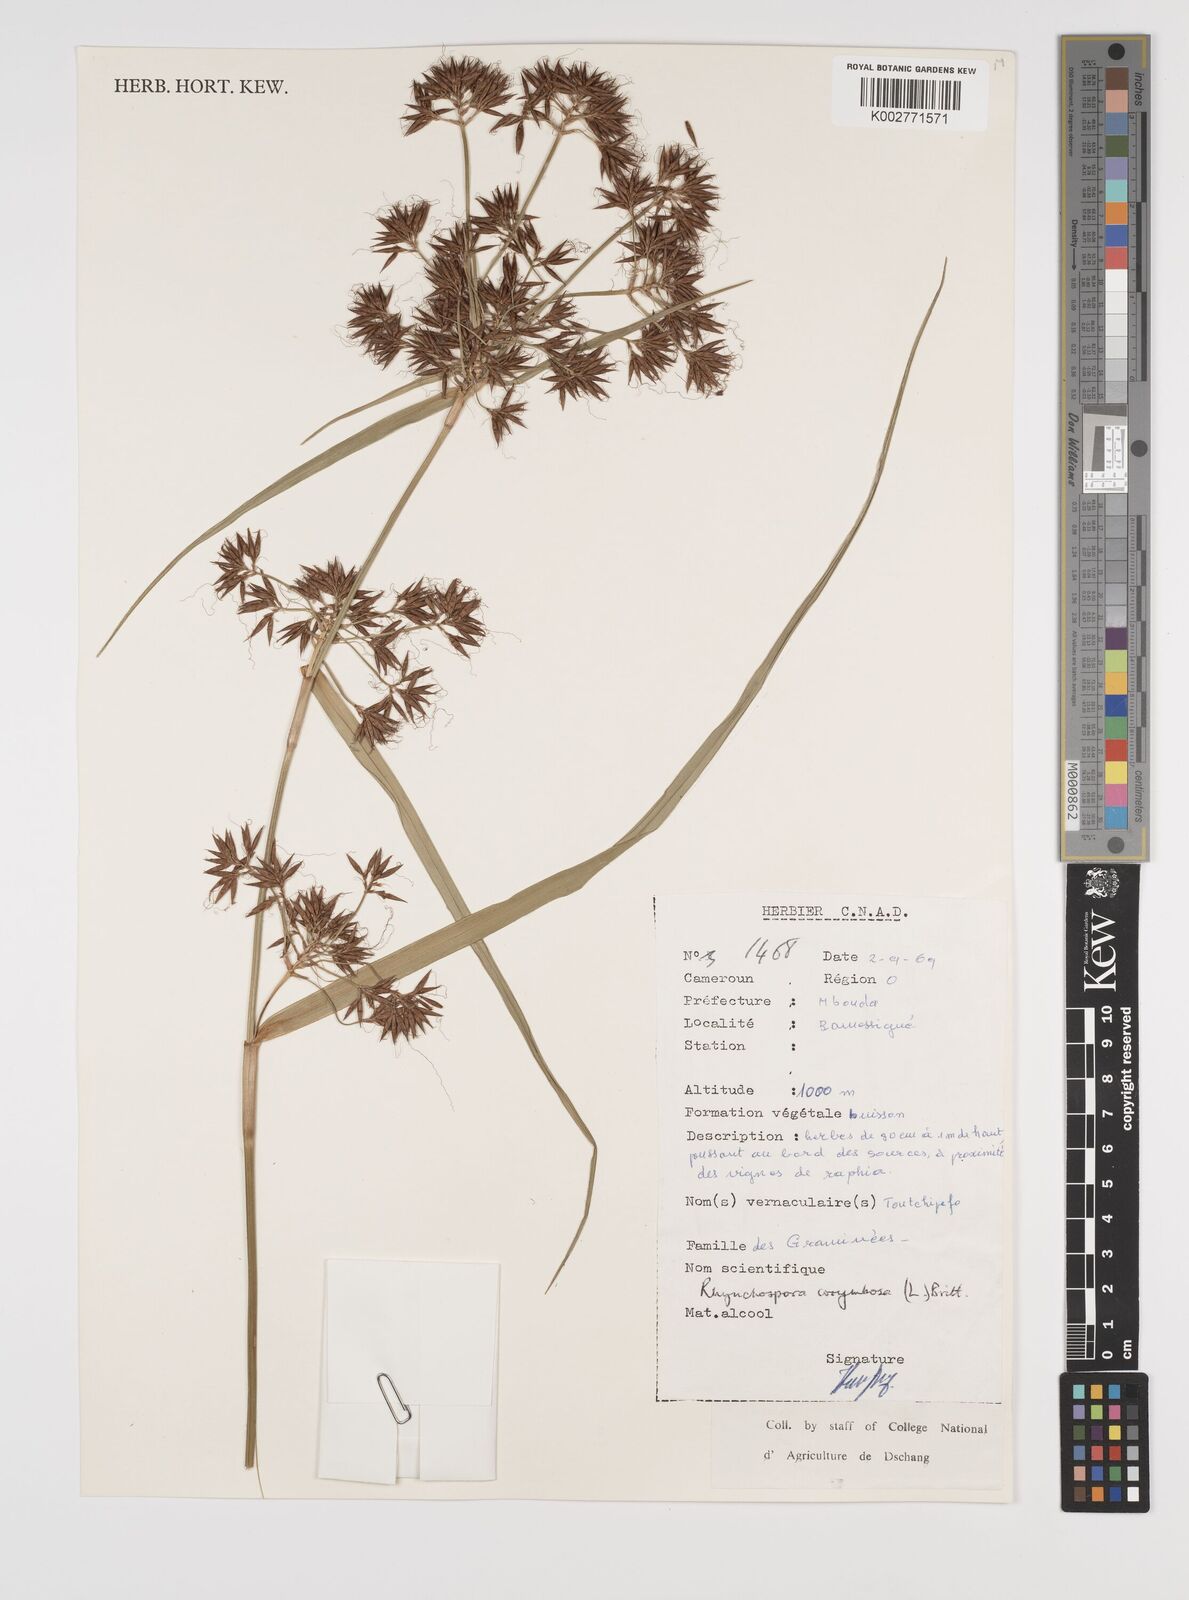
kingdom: Plantae
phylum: Tracheophyta
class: Liliopsida
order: Poales
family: Cyperaceae
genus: Rhynchospora
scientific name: Rhynchospora corymbosa
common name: Golden beak sedge
